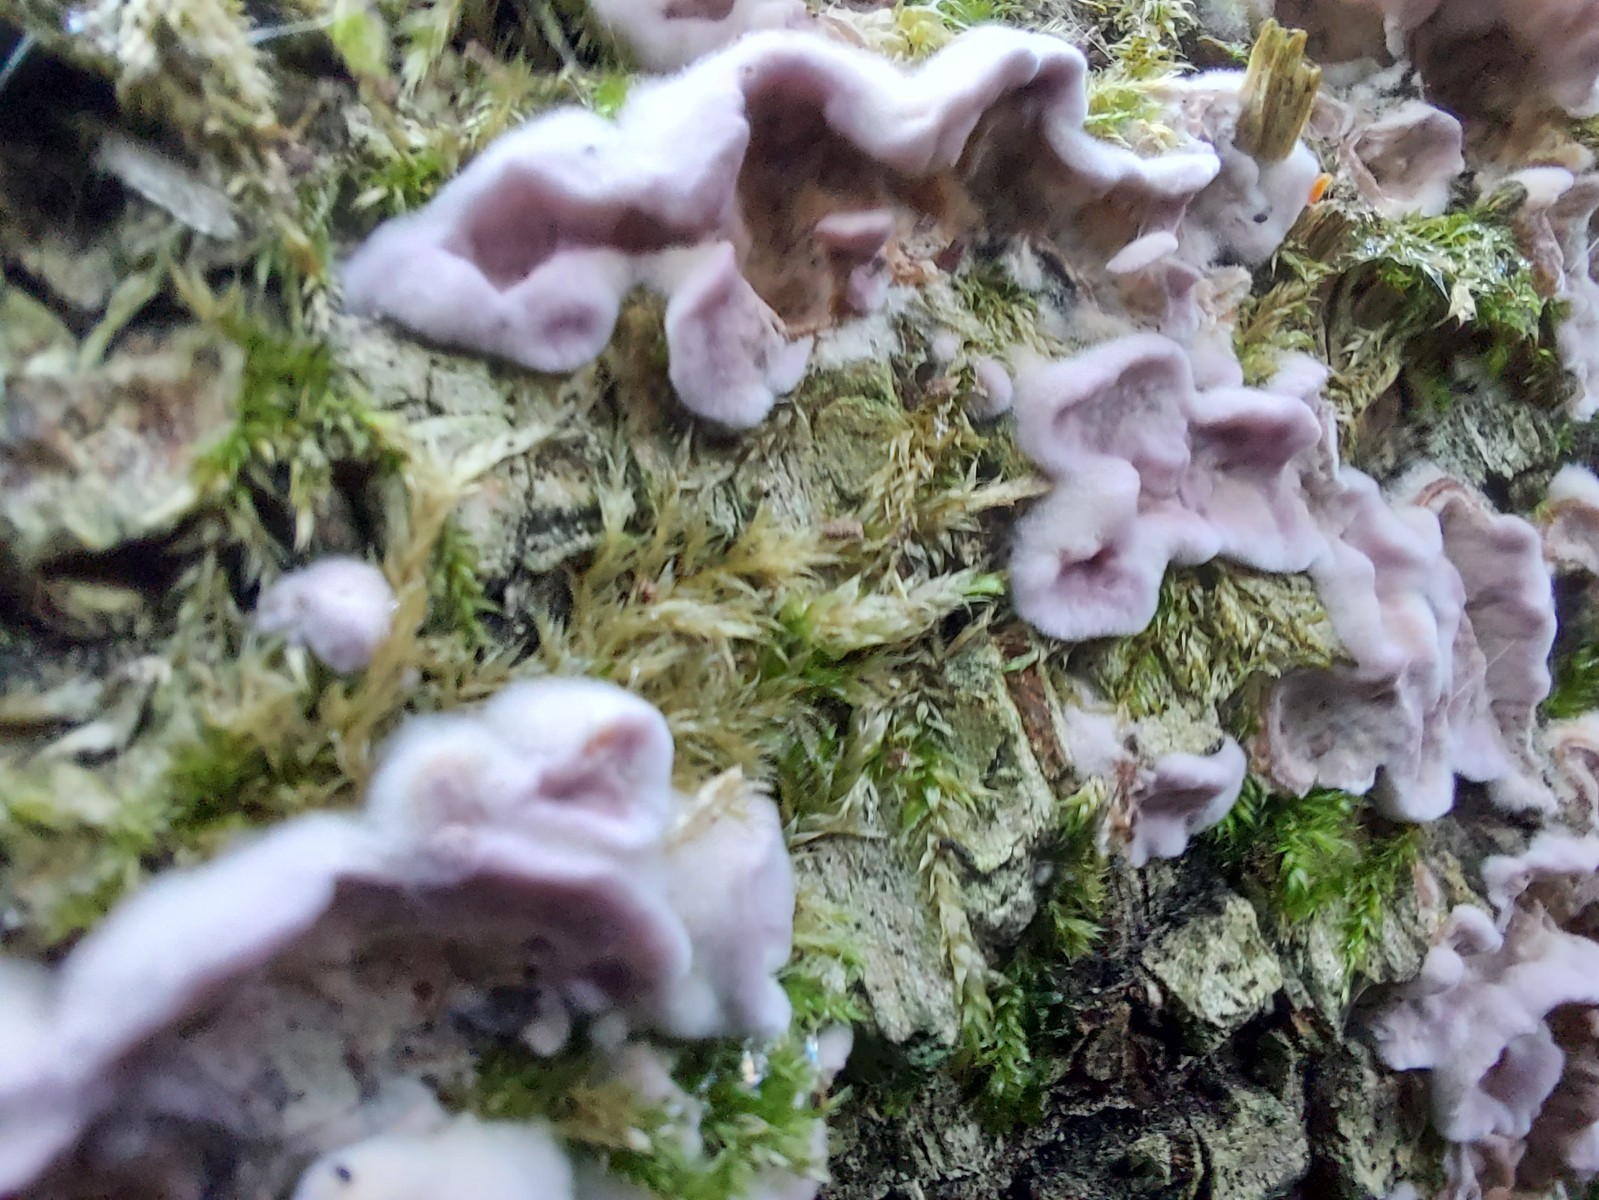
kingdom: Fungi
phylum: Basidiomycota
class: Agaricomycetes
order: Agaricales
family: Cyphellaceae
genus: Chondrostereum
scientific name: Chondrostereum purpureum
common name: purpurlædersvamp
